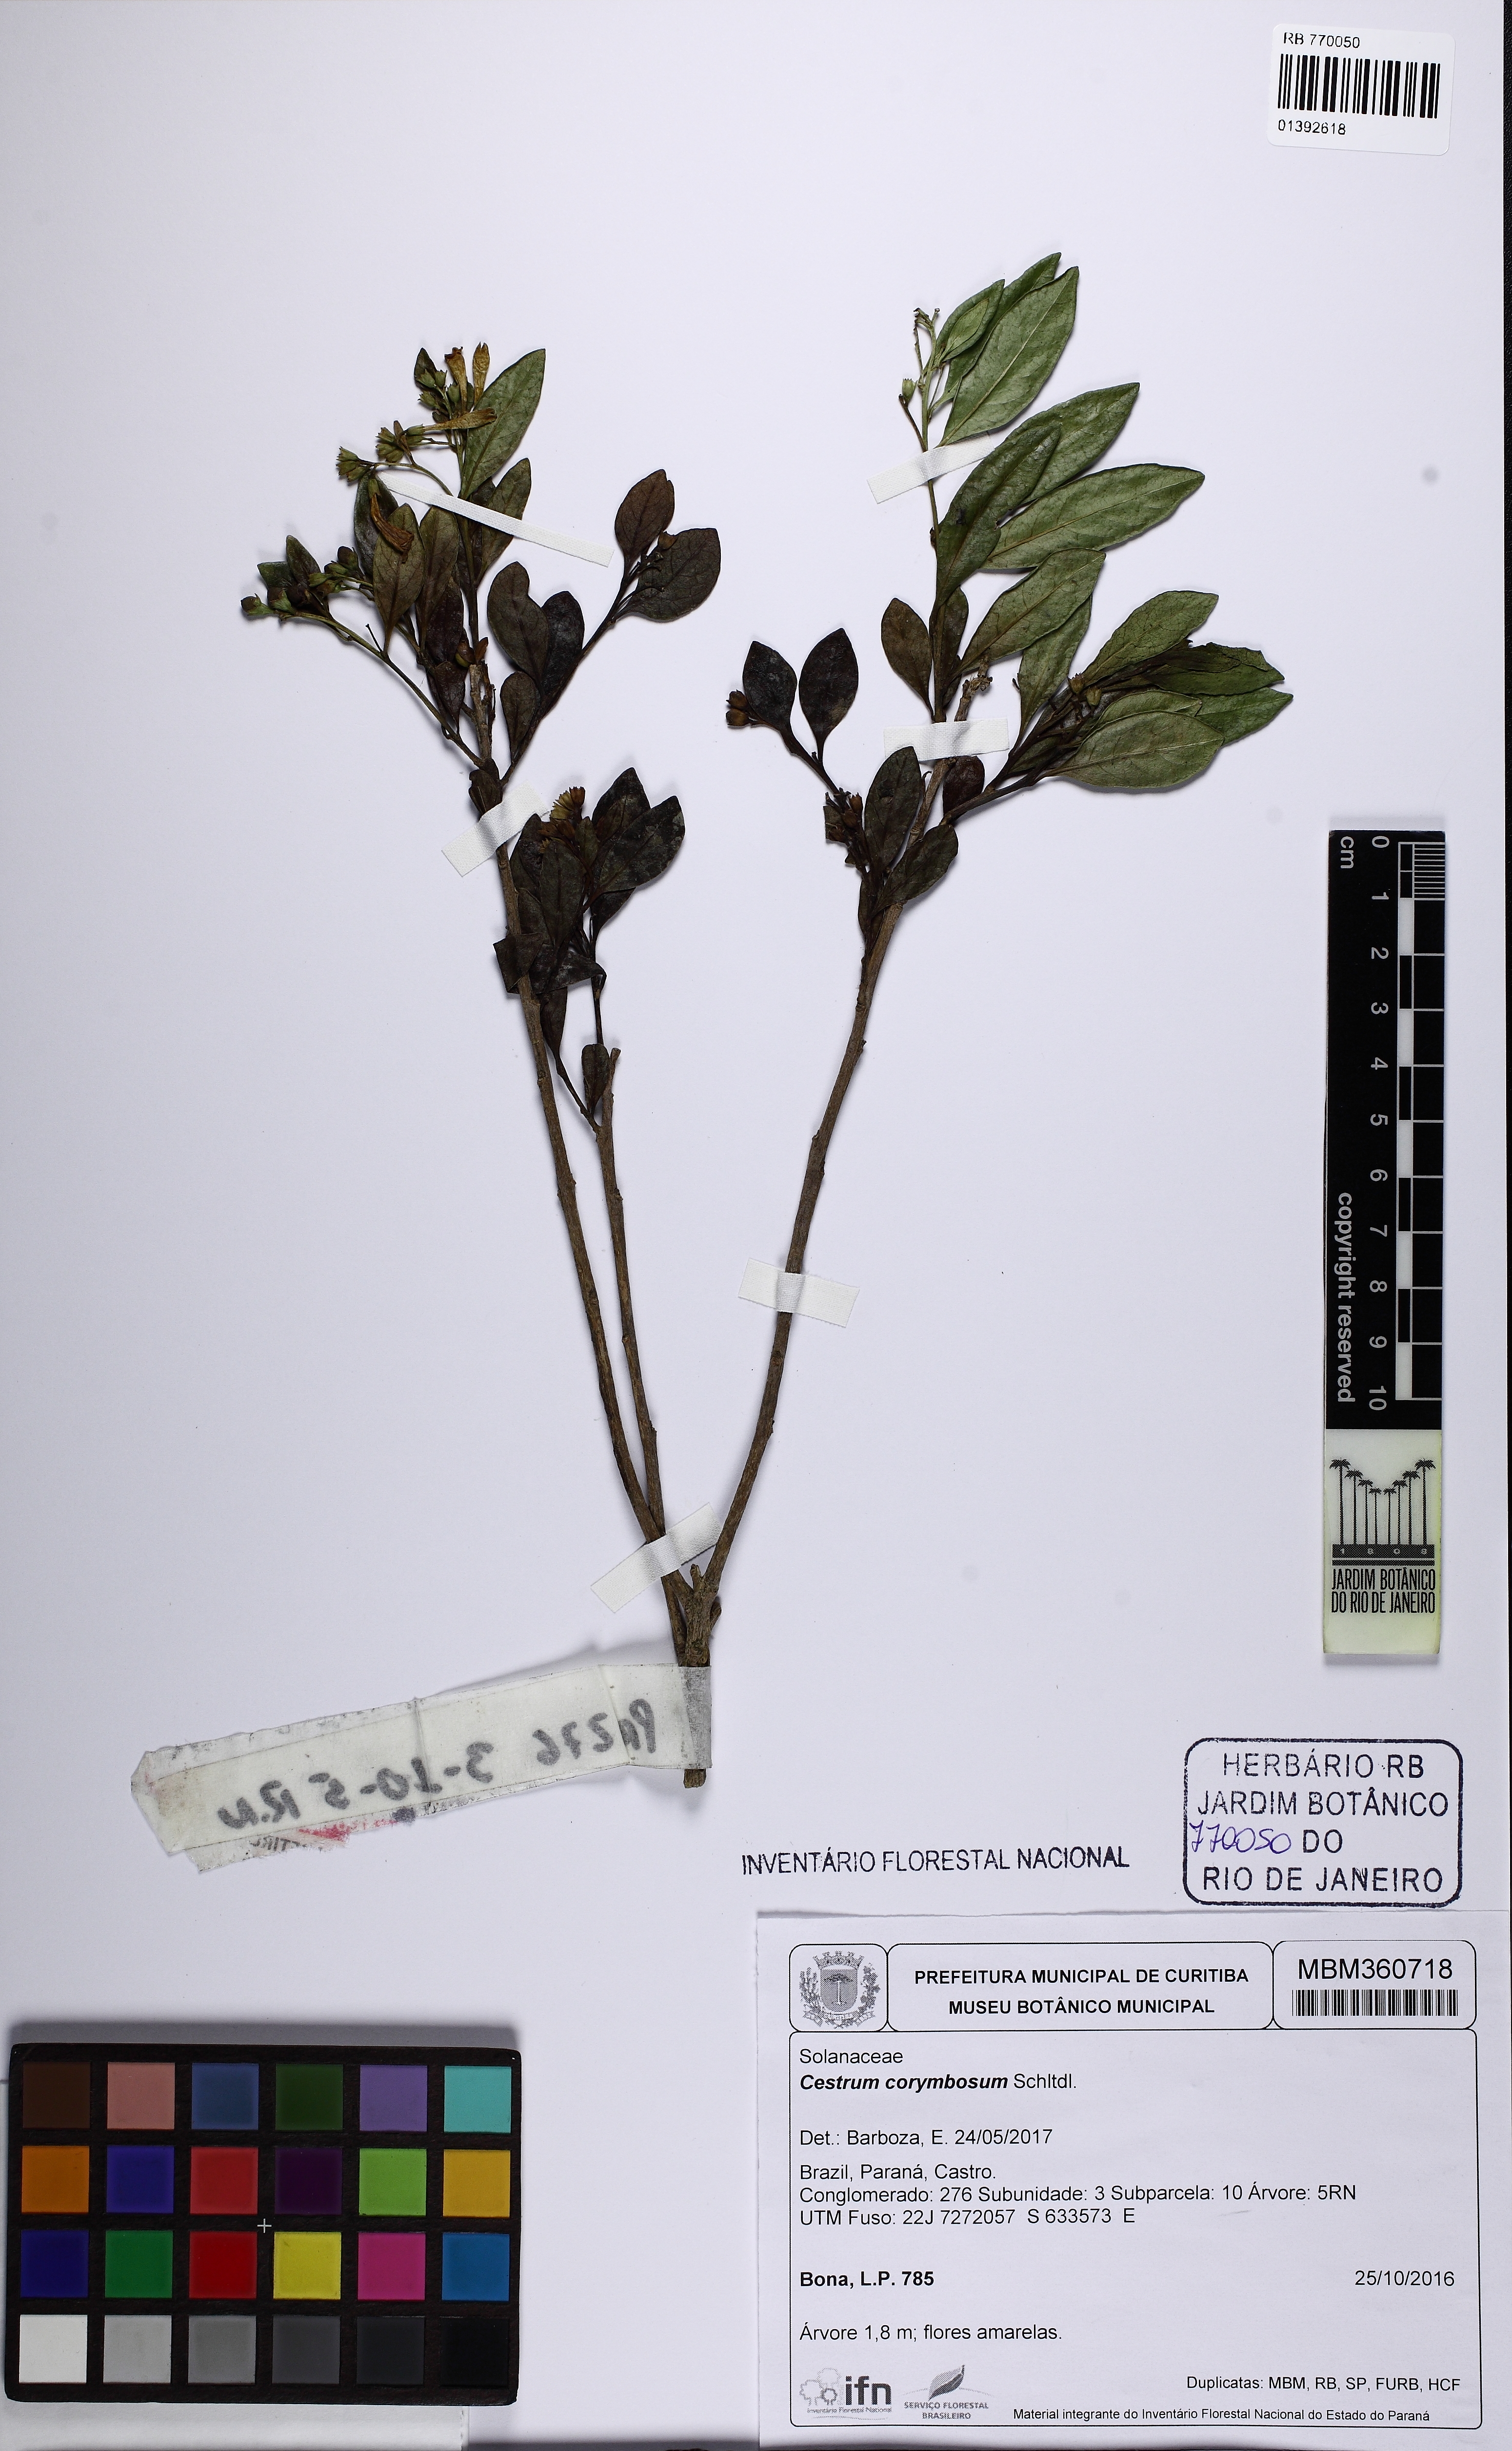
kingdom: Plantae
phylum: Tracheophyta
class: Magnoliopsida
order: Solanales
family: Solanaceae
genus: Cestrum
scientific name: Cestrum corymbosum
